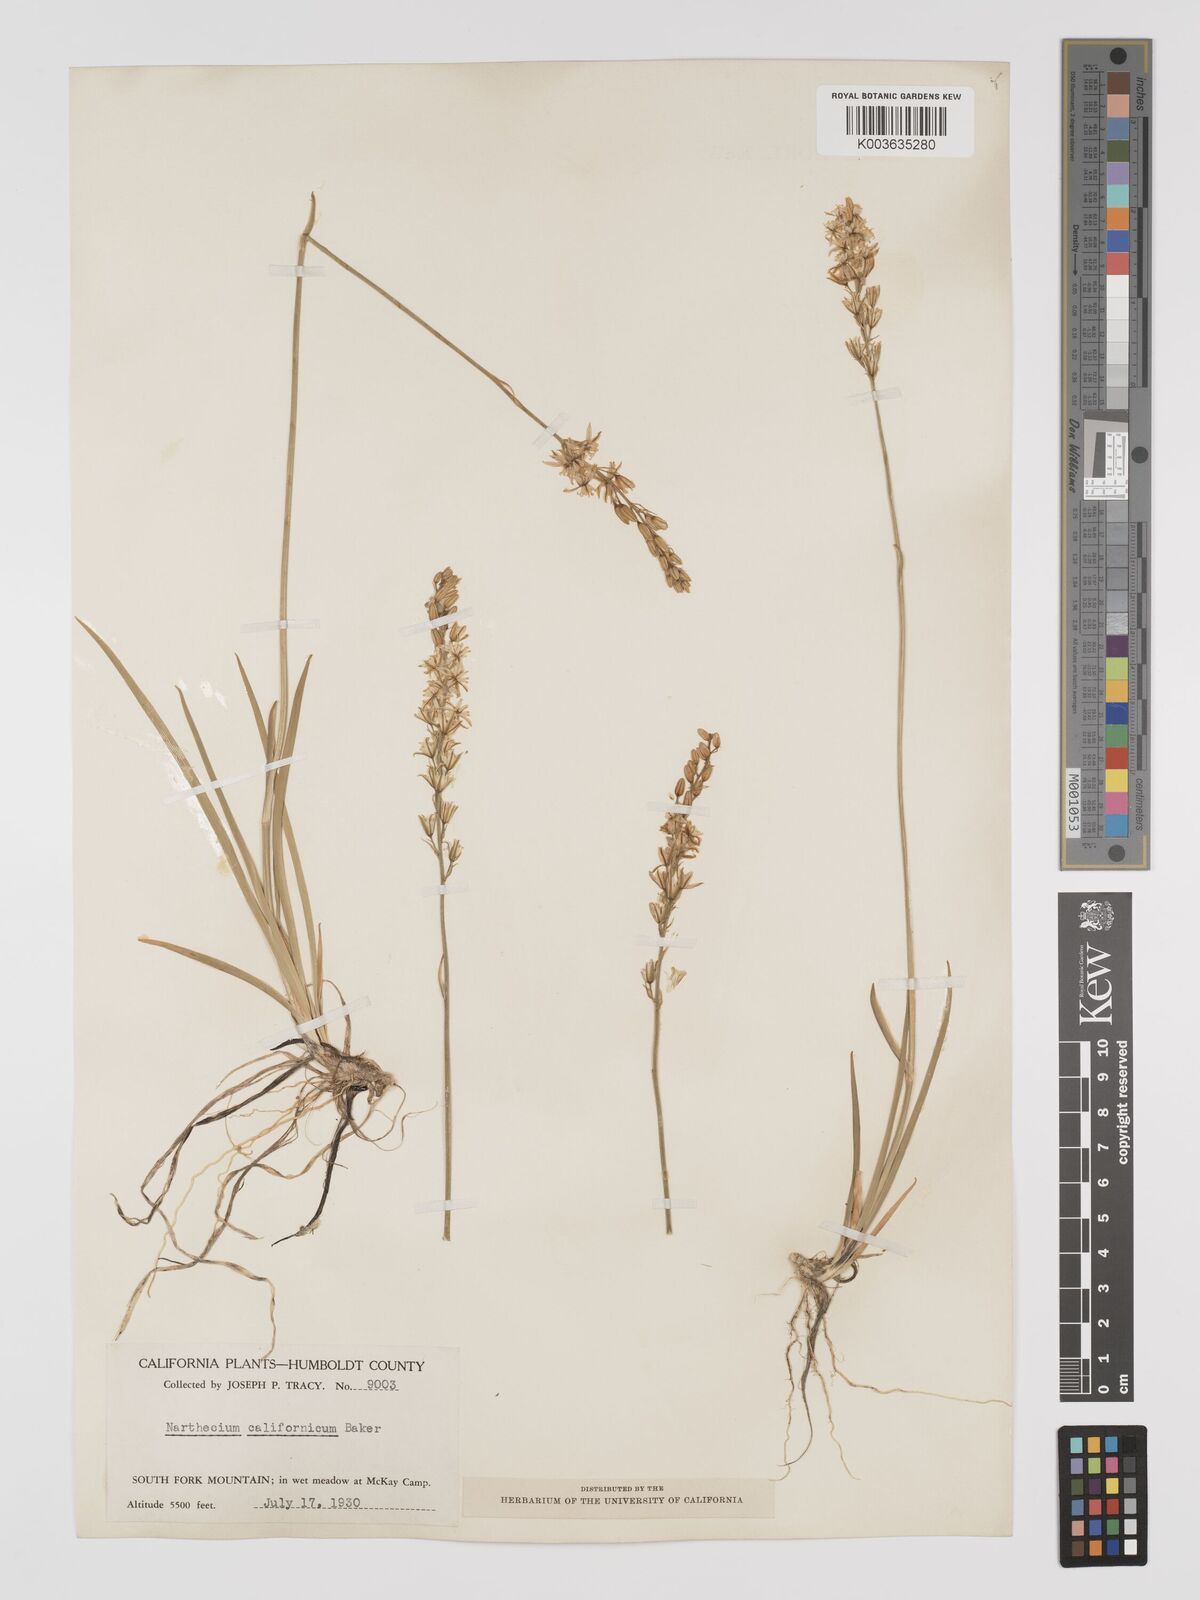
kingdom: Plantae
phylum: Tracheophyta
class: Liliopsida
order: Dioscoreales
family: Nartheciaceae
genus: Narthecium
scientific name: Narthecium californicum
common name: California bog-asphodel
